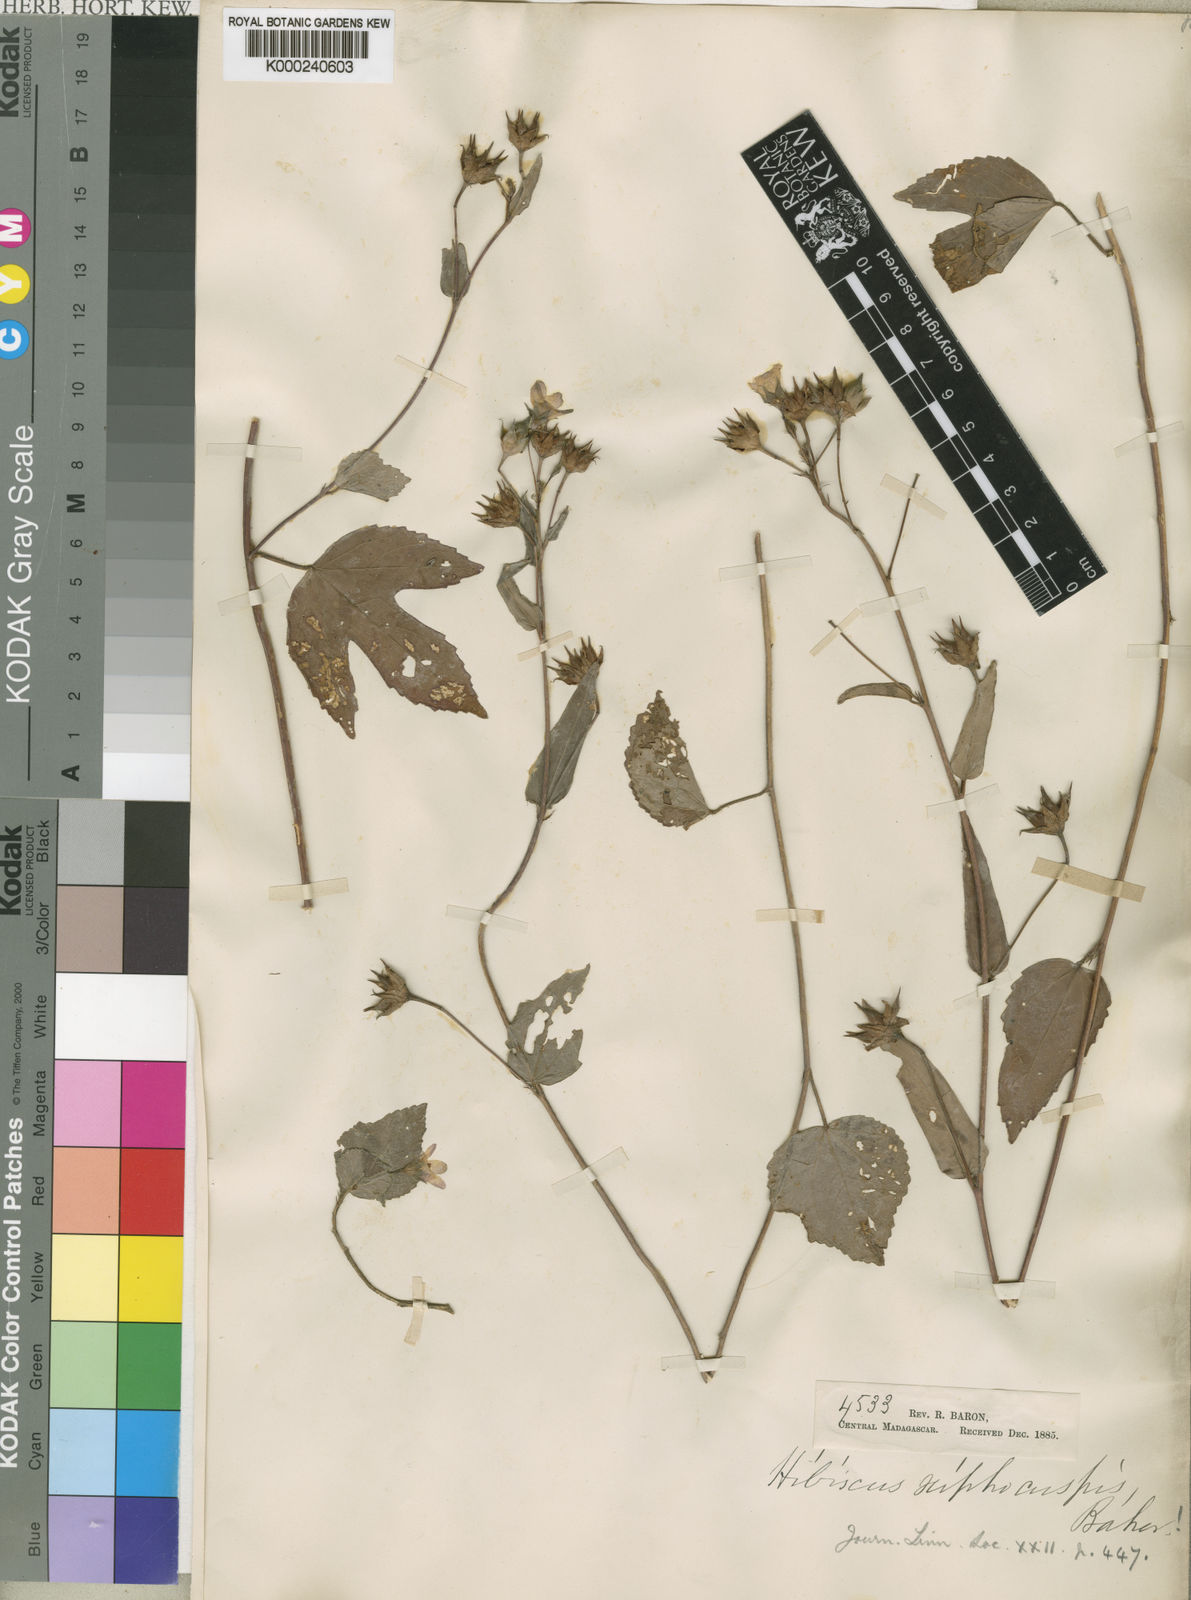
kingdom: Plantae
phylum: Tracheophyta
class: Magnoliopsida
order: Malvales
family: Malvaceae
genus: Hibiscus
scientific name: Hibiscus caerulescens
